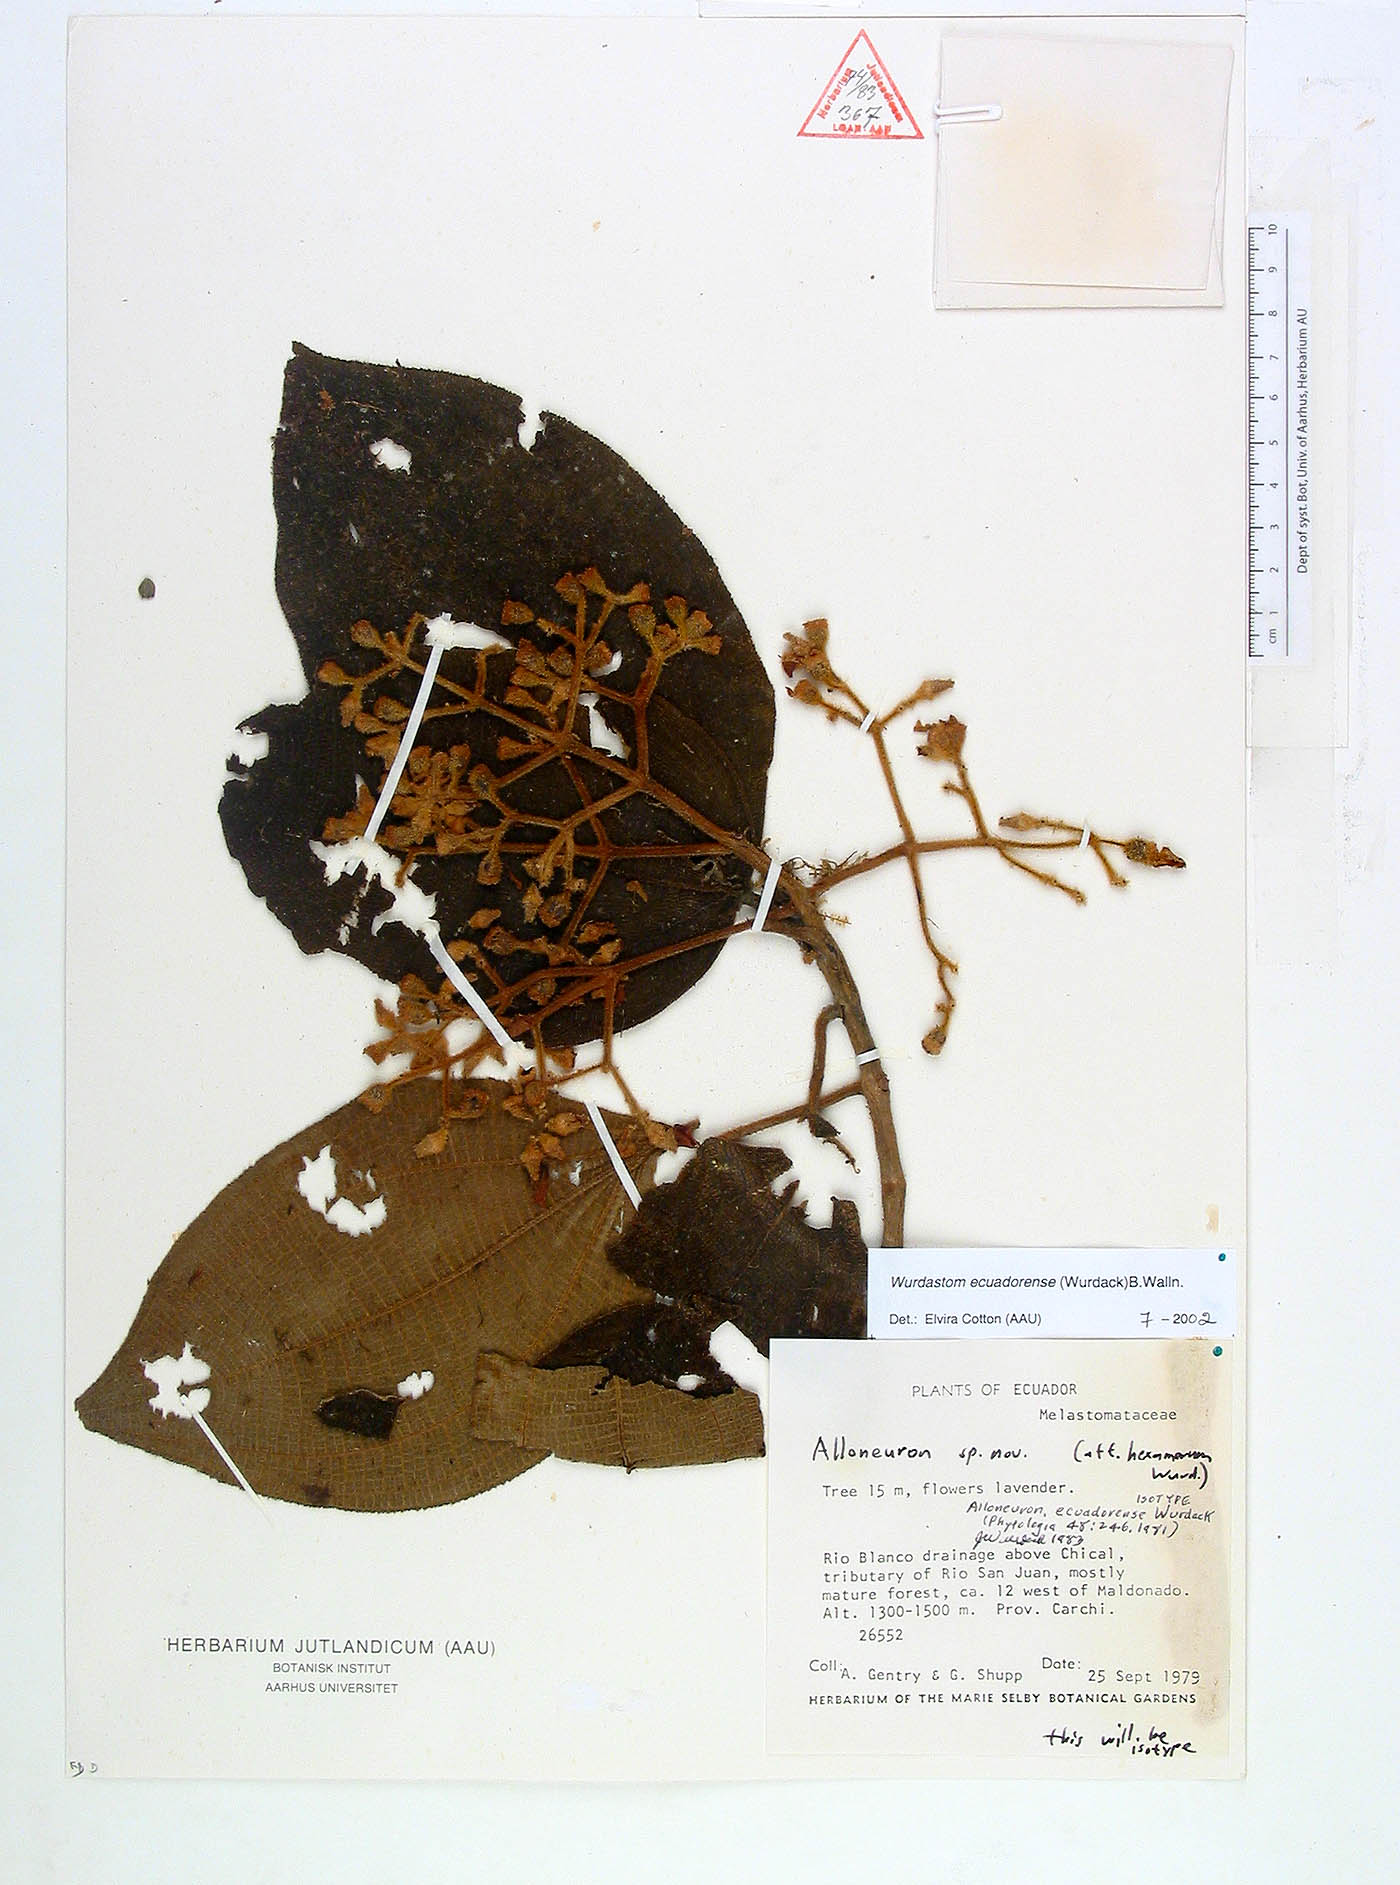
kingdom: Plantae
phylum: Tracheophyta
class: Magnoliopsida
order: Myrtales
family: Melastomataceae
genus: Wurdastom
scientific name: Wurdastom ecuadorense
